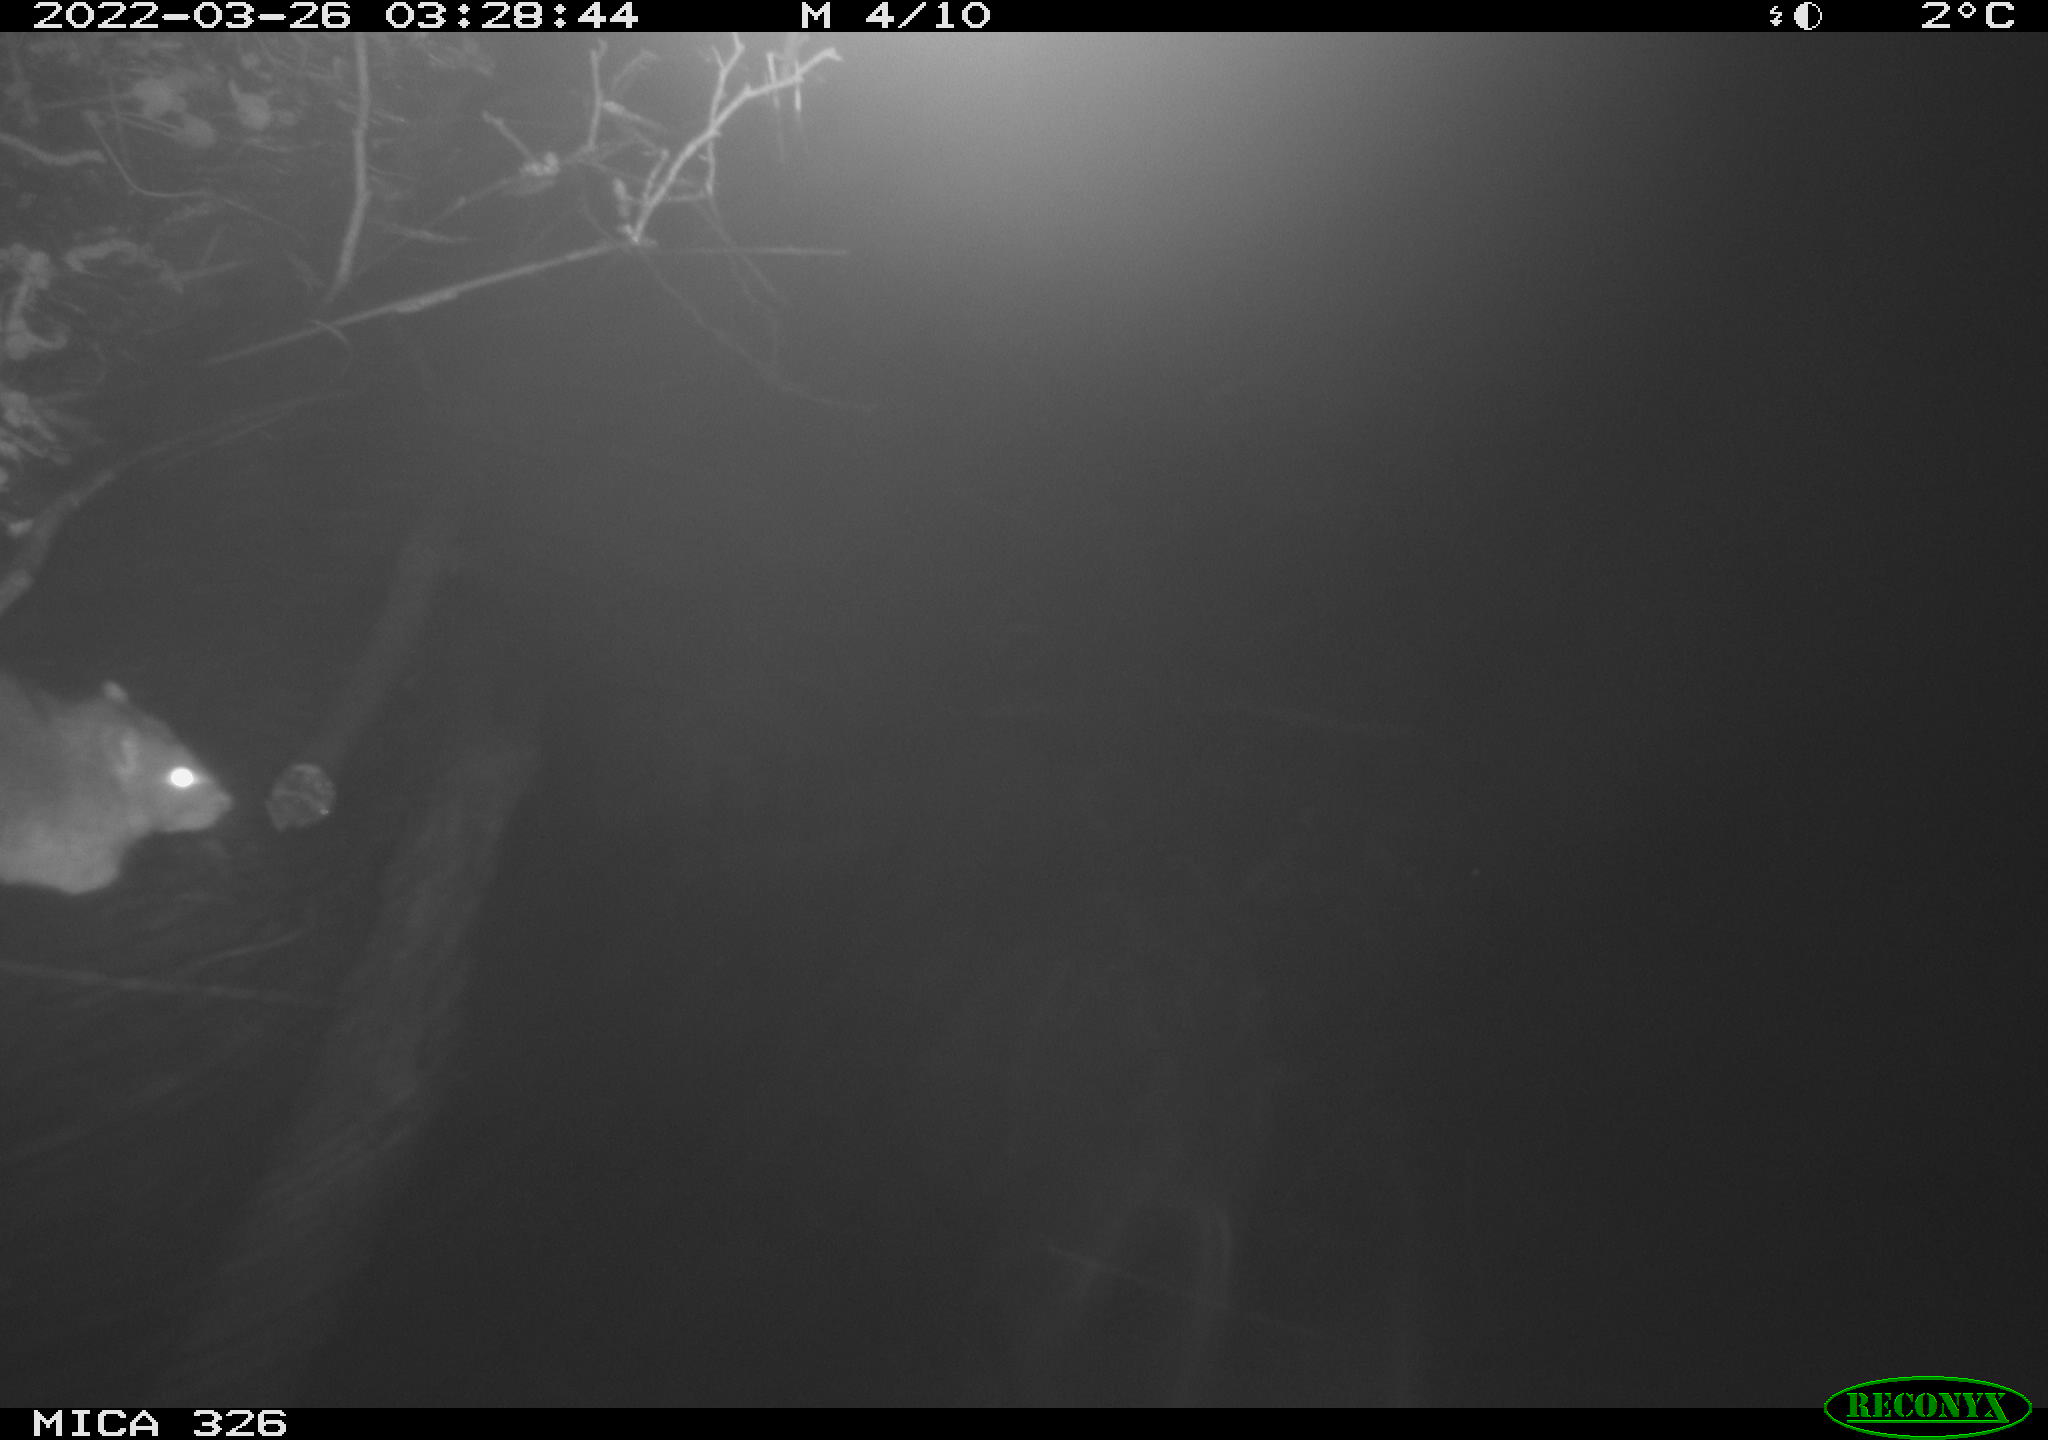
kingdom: Animalia
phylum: Chordata
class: Mammalia
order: Rodentia
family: Muridae
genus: Rattus
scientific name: Rattus norvegicus
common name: Brown rat
